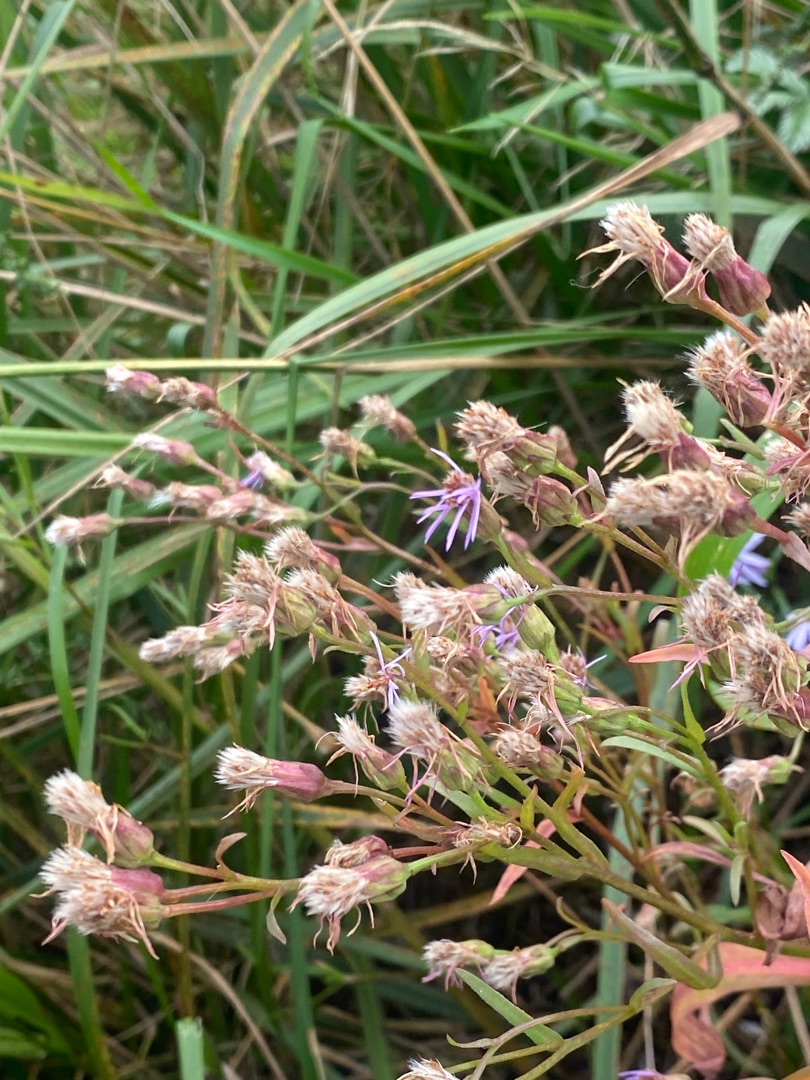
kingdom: Plantae
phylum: Tracheophyta
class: Magnoliopsida
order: Asterales
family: Asteraceae
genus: Tripolium
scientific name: Tripolium pannonicum
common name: Strandasters
